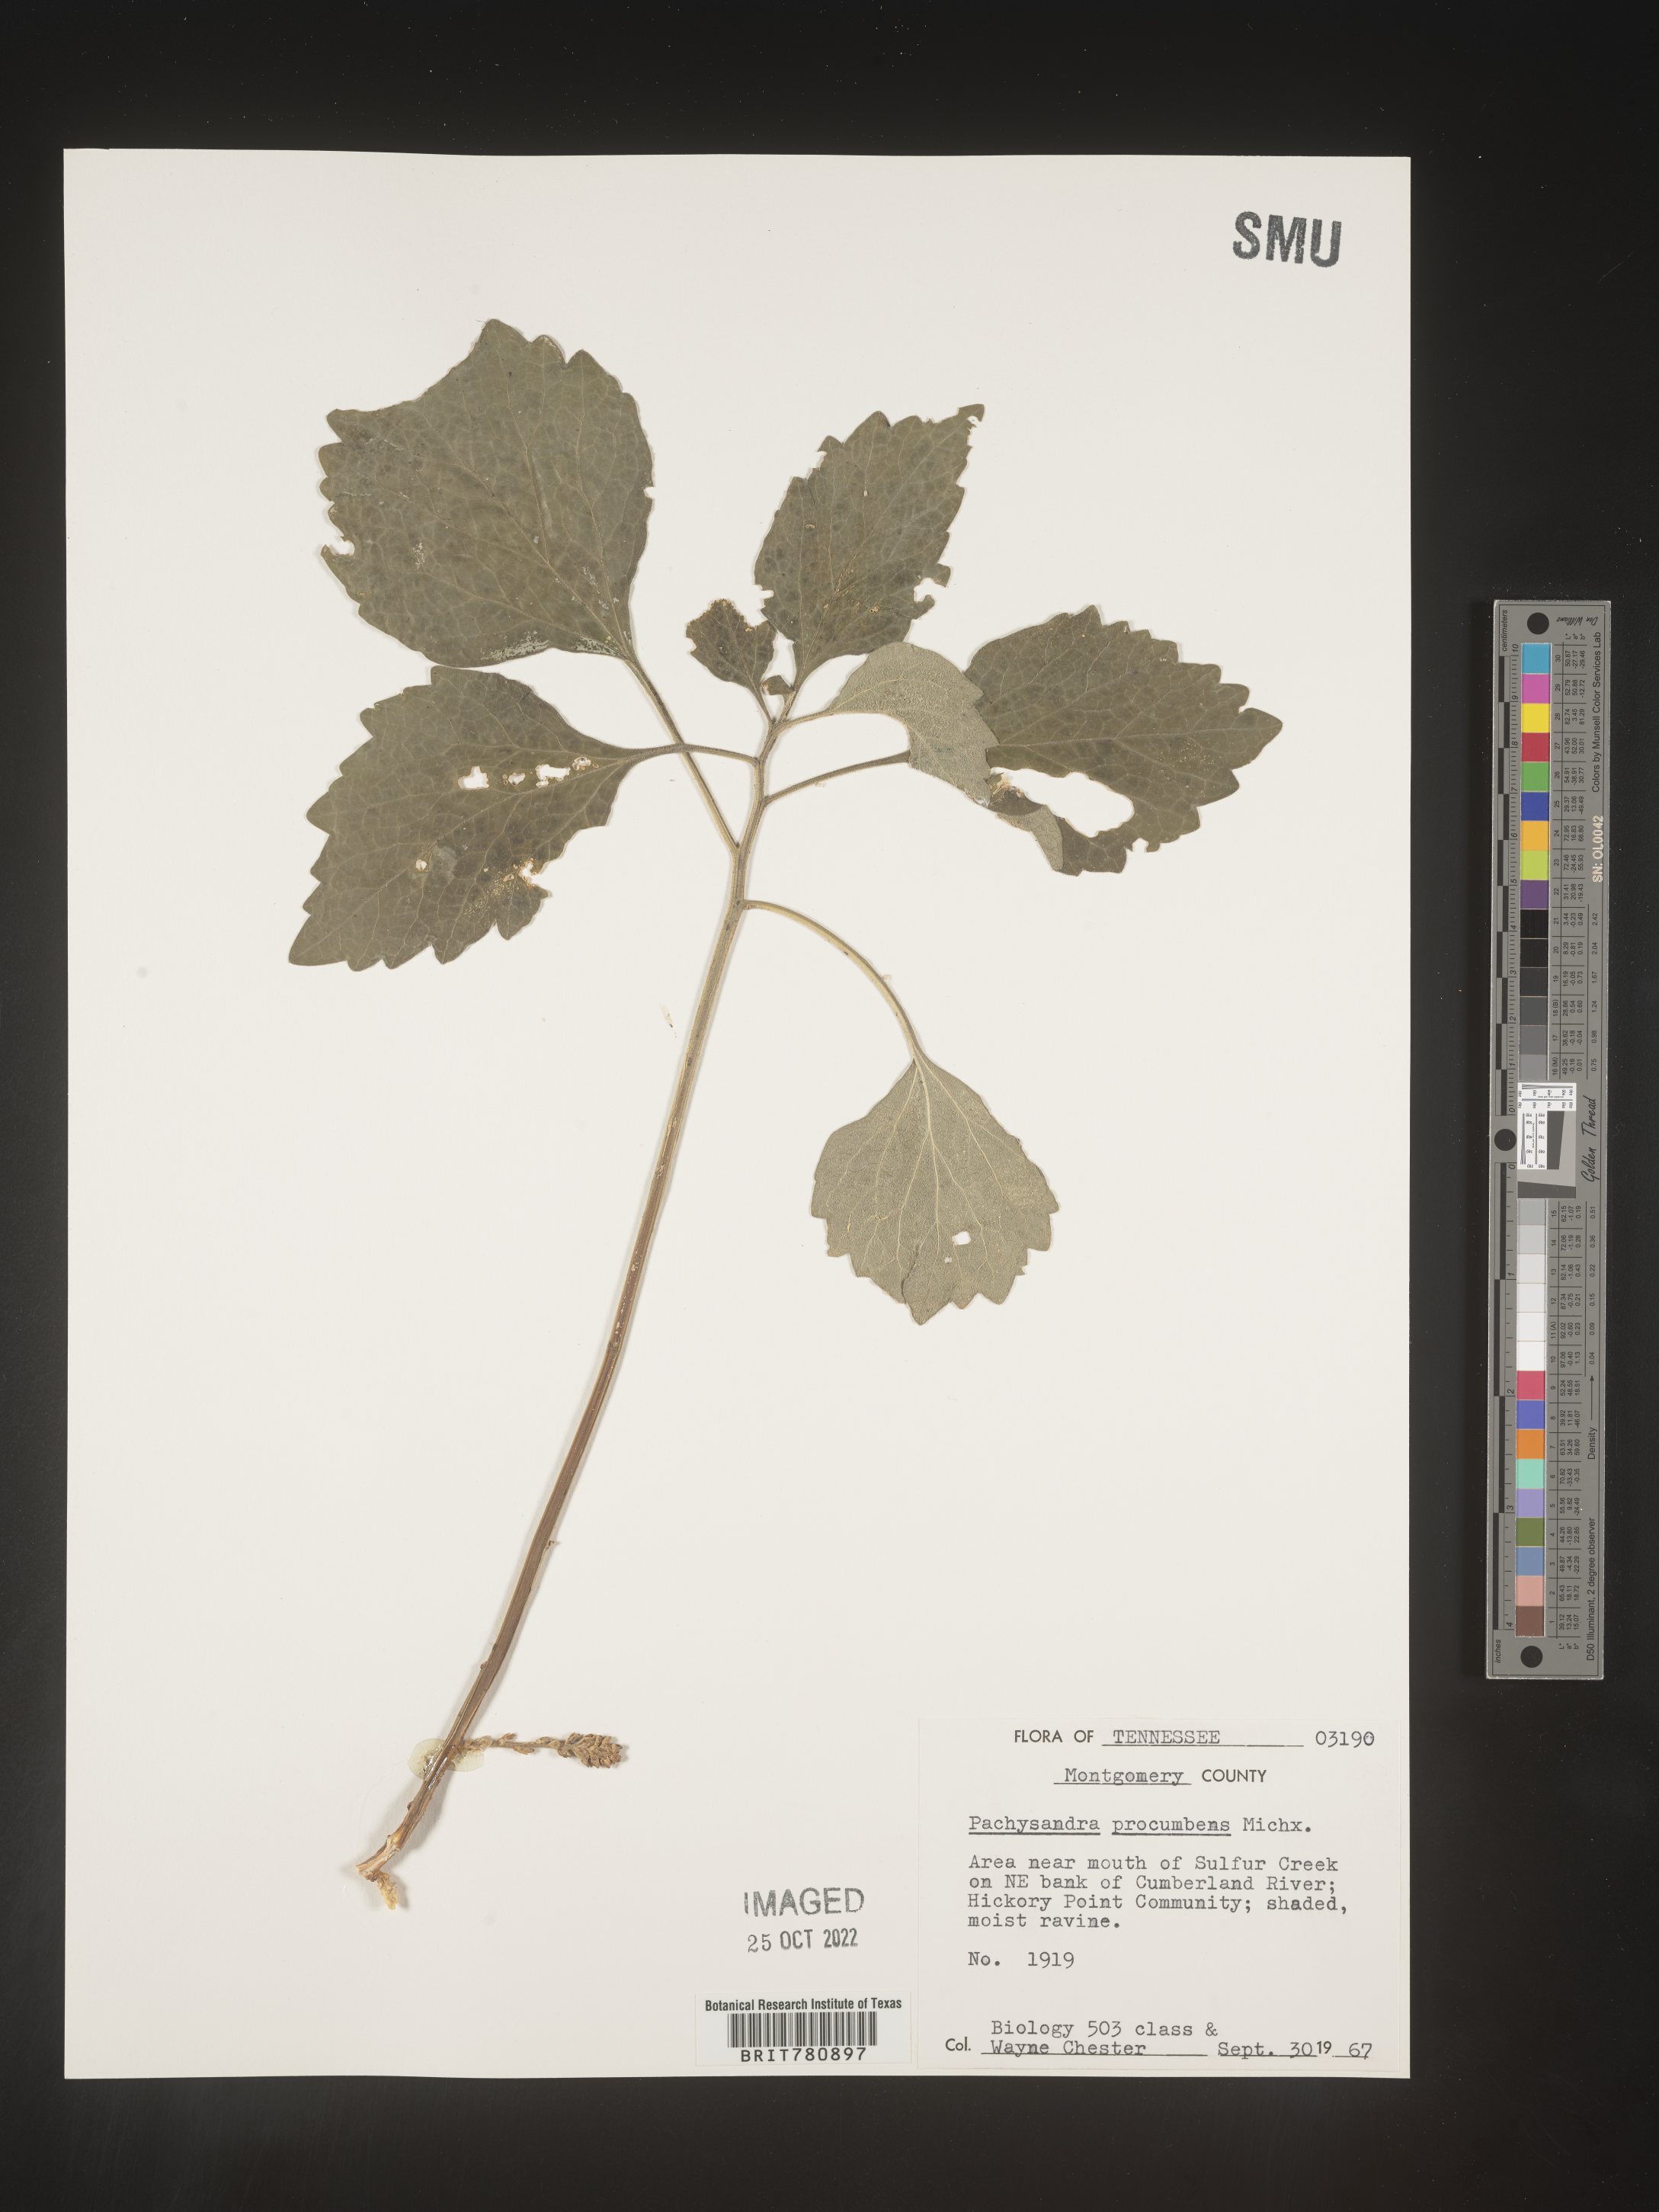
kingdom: Plantae
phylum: Tracheophyta
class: Magnoliopsida
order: Buxales
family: Buxaceae
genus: Pachysandra
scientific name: Pachysandra
